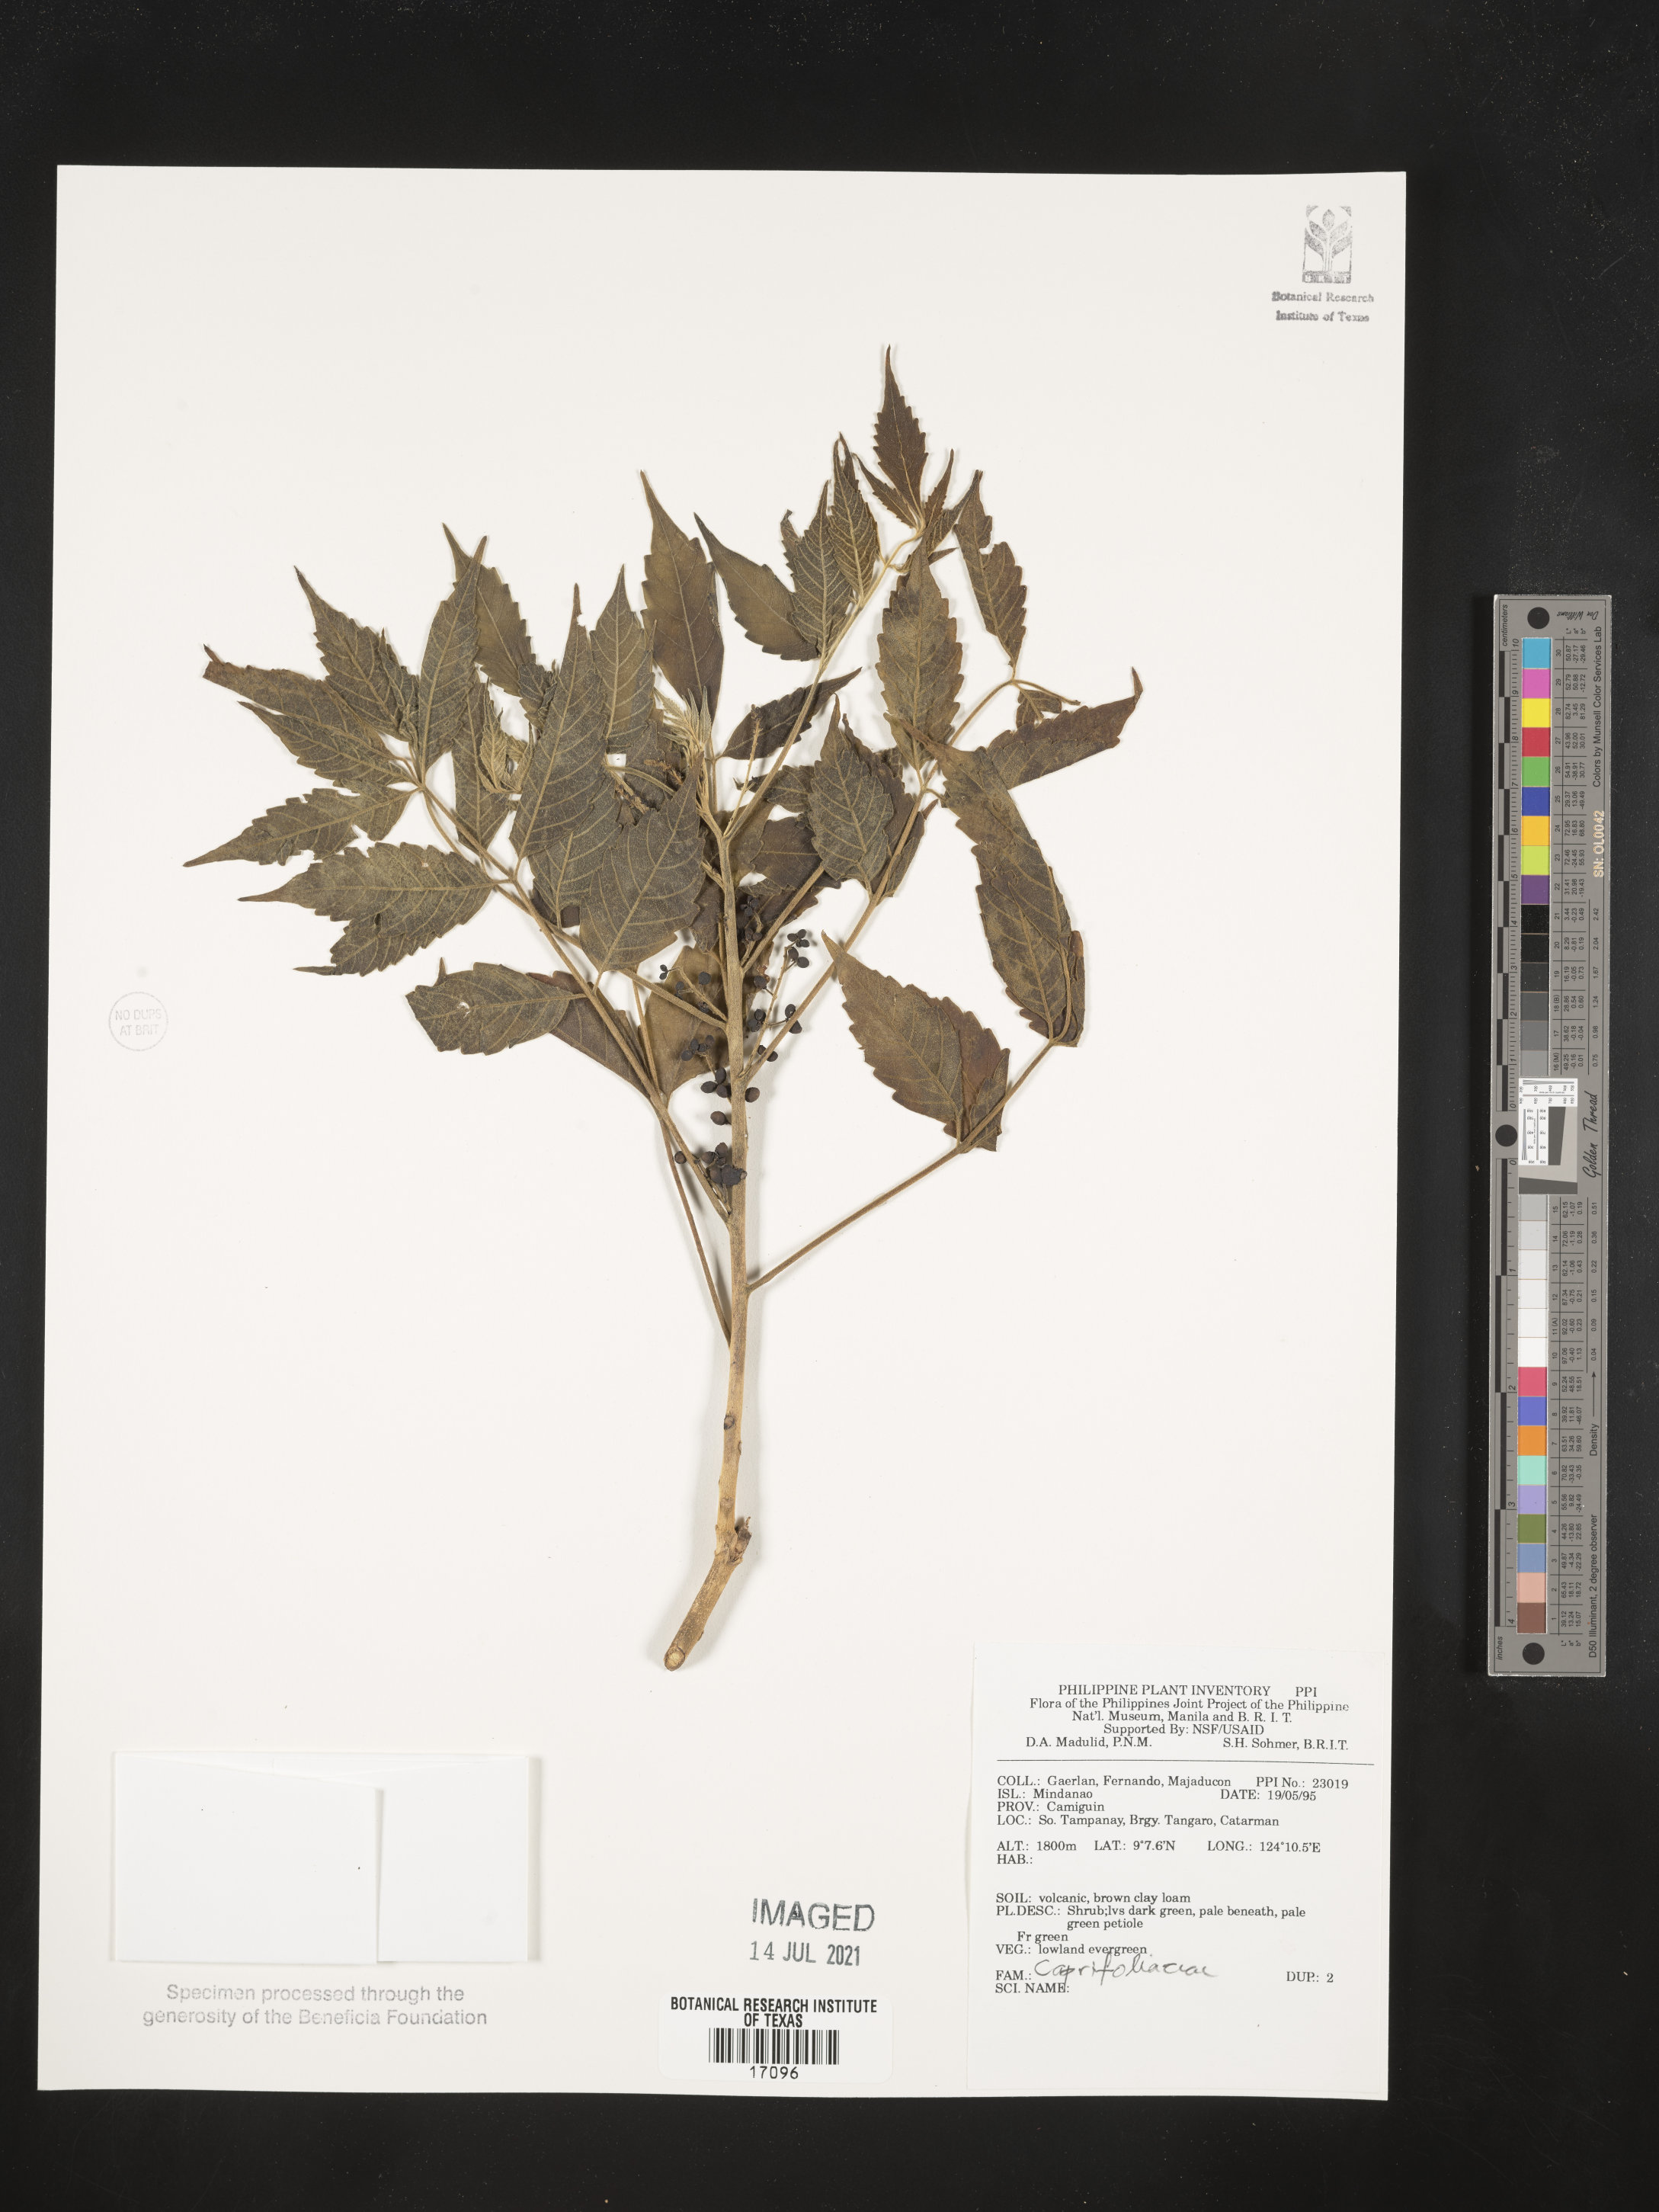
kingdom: Plantae
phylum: Tracheophyta
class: Magnoliopsida
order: Dipsacales
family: Caprifoliaceae
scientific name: Caprifoliaceae
